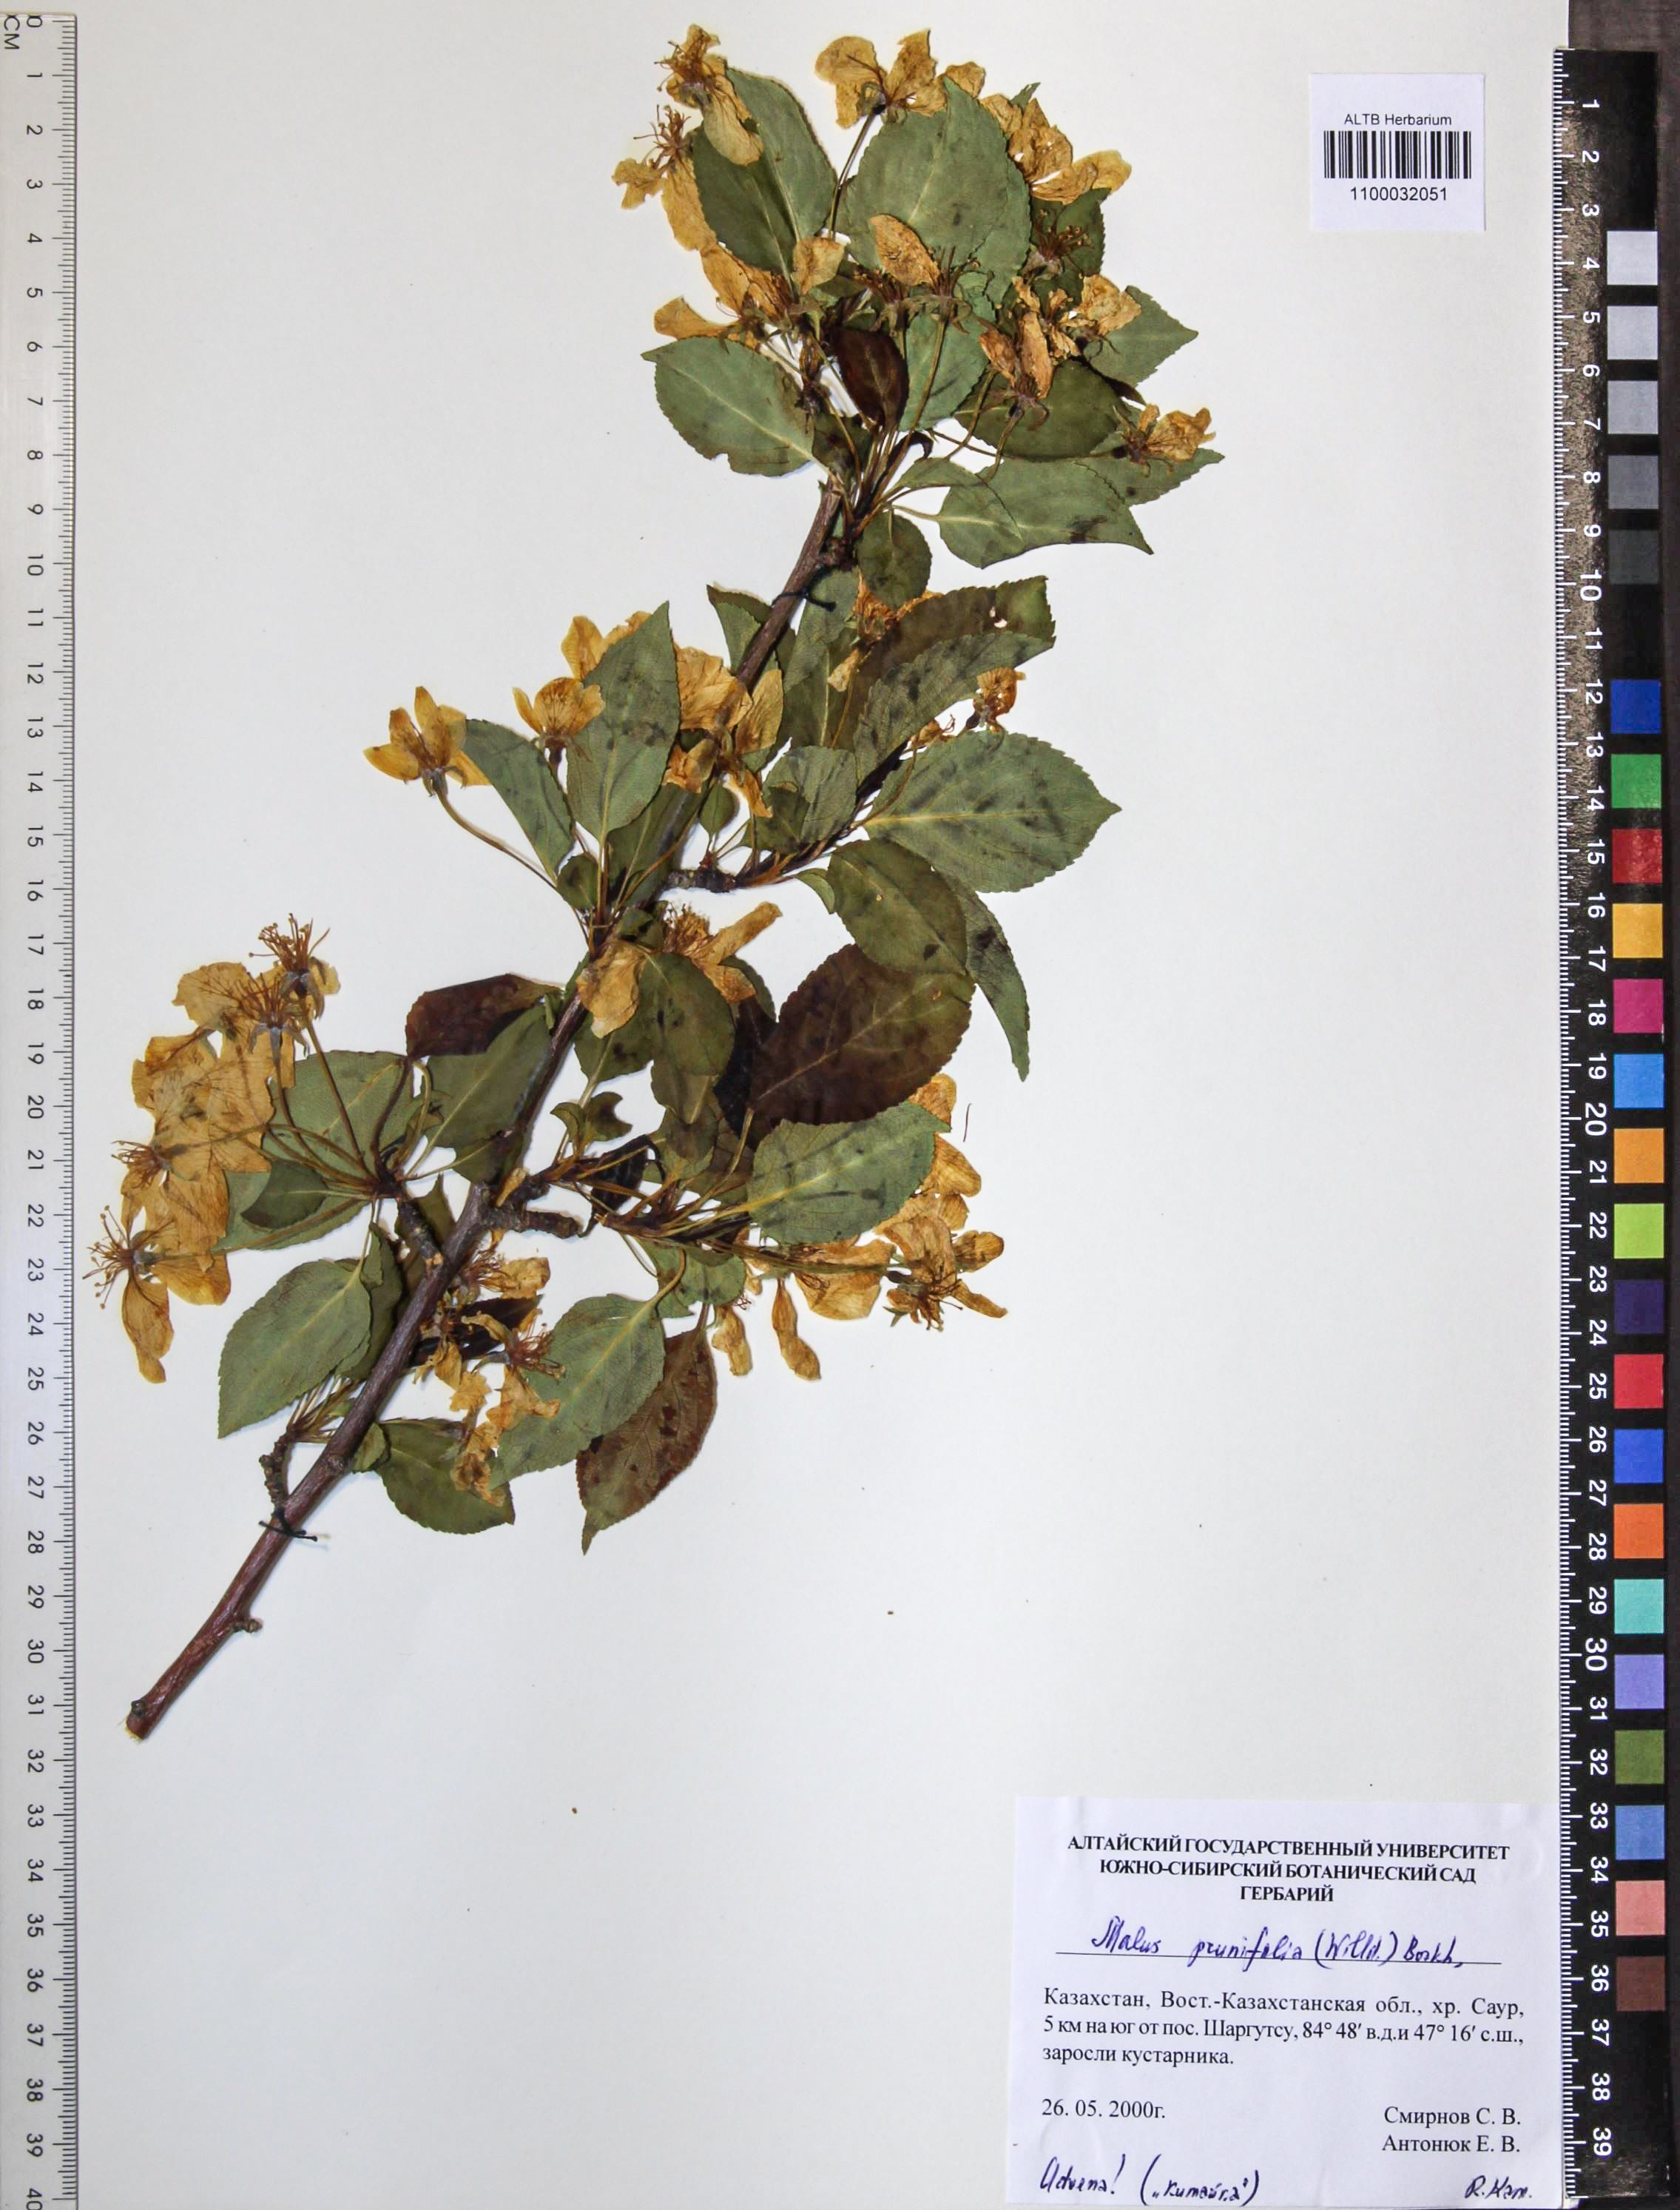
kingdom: Plantae
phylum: Tracheophyta
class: Magnoliopsida
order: Rosales
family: Rosaceae
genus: Malus
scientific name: Malus prunifolia
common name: Chinese apple
